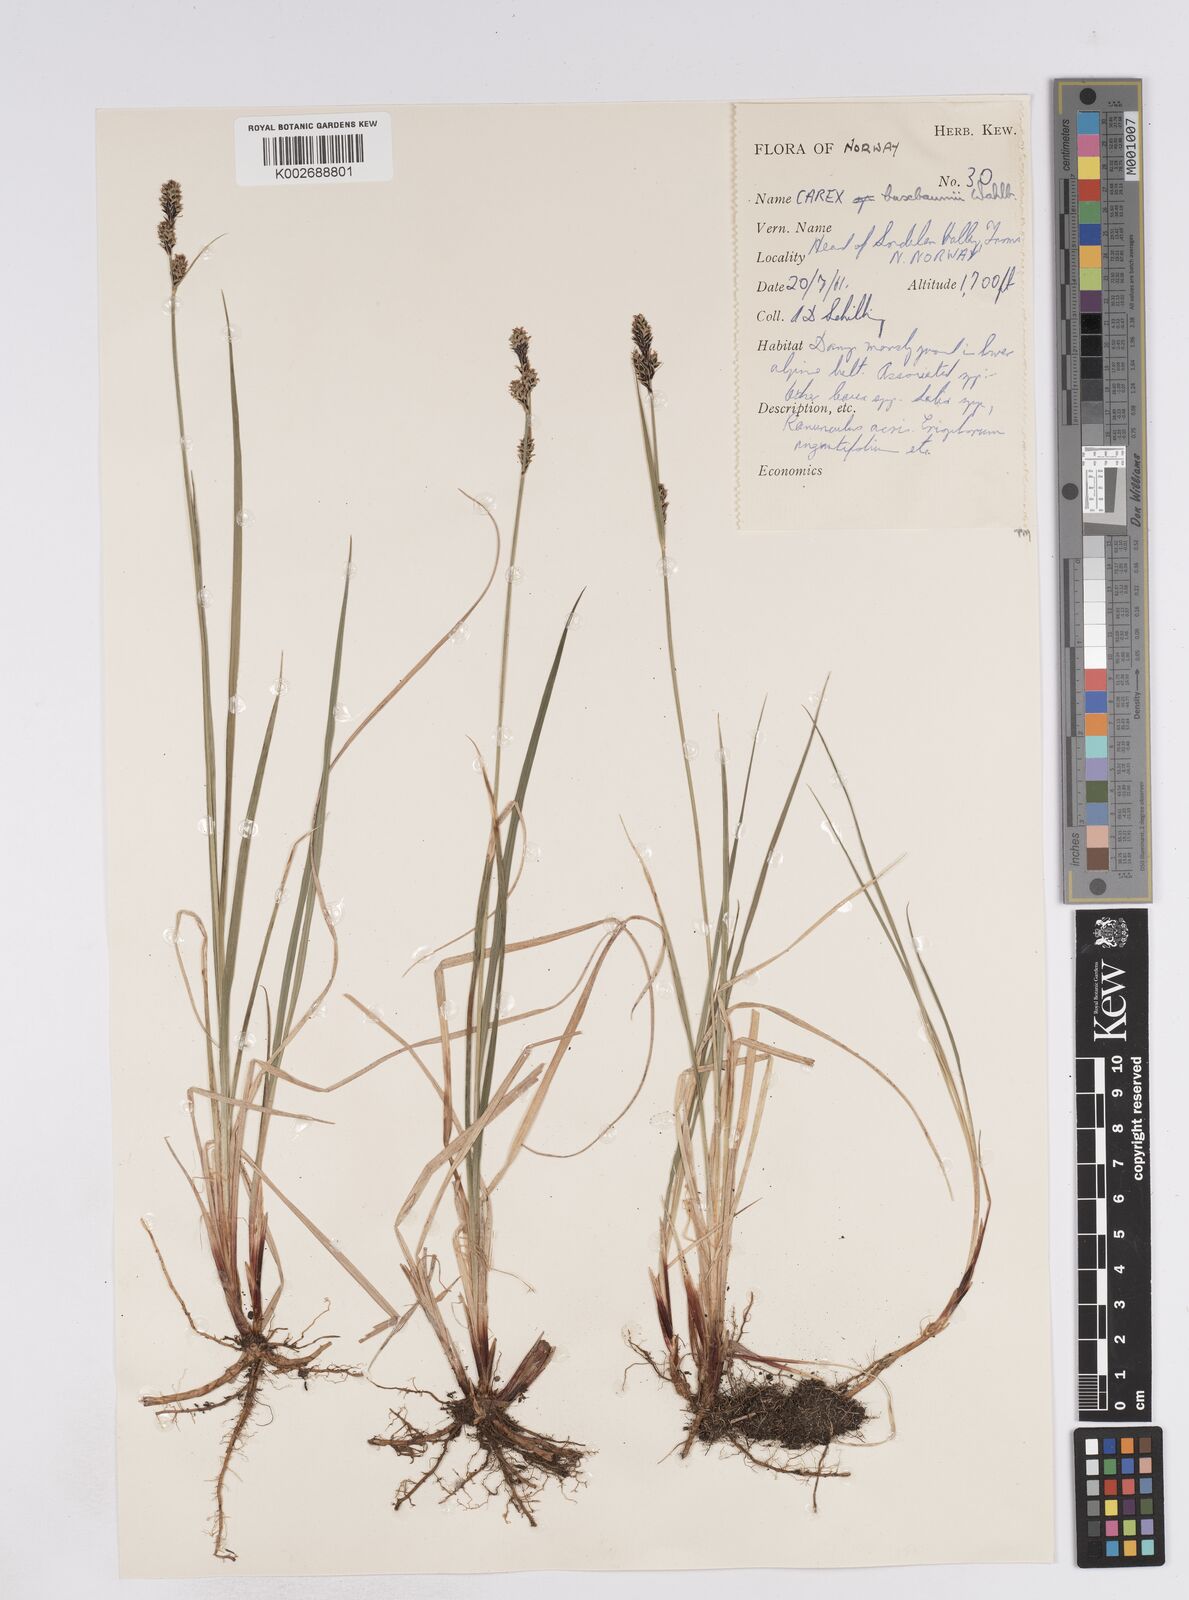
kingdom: Plantae
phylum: Tracheophyta
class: Liliopsida
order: Poales
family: Cyperaceae
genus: Carex
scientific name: Carex buxbaumii
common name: Club sedge
